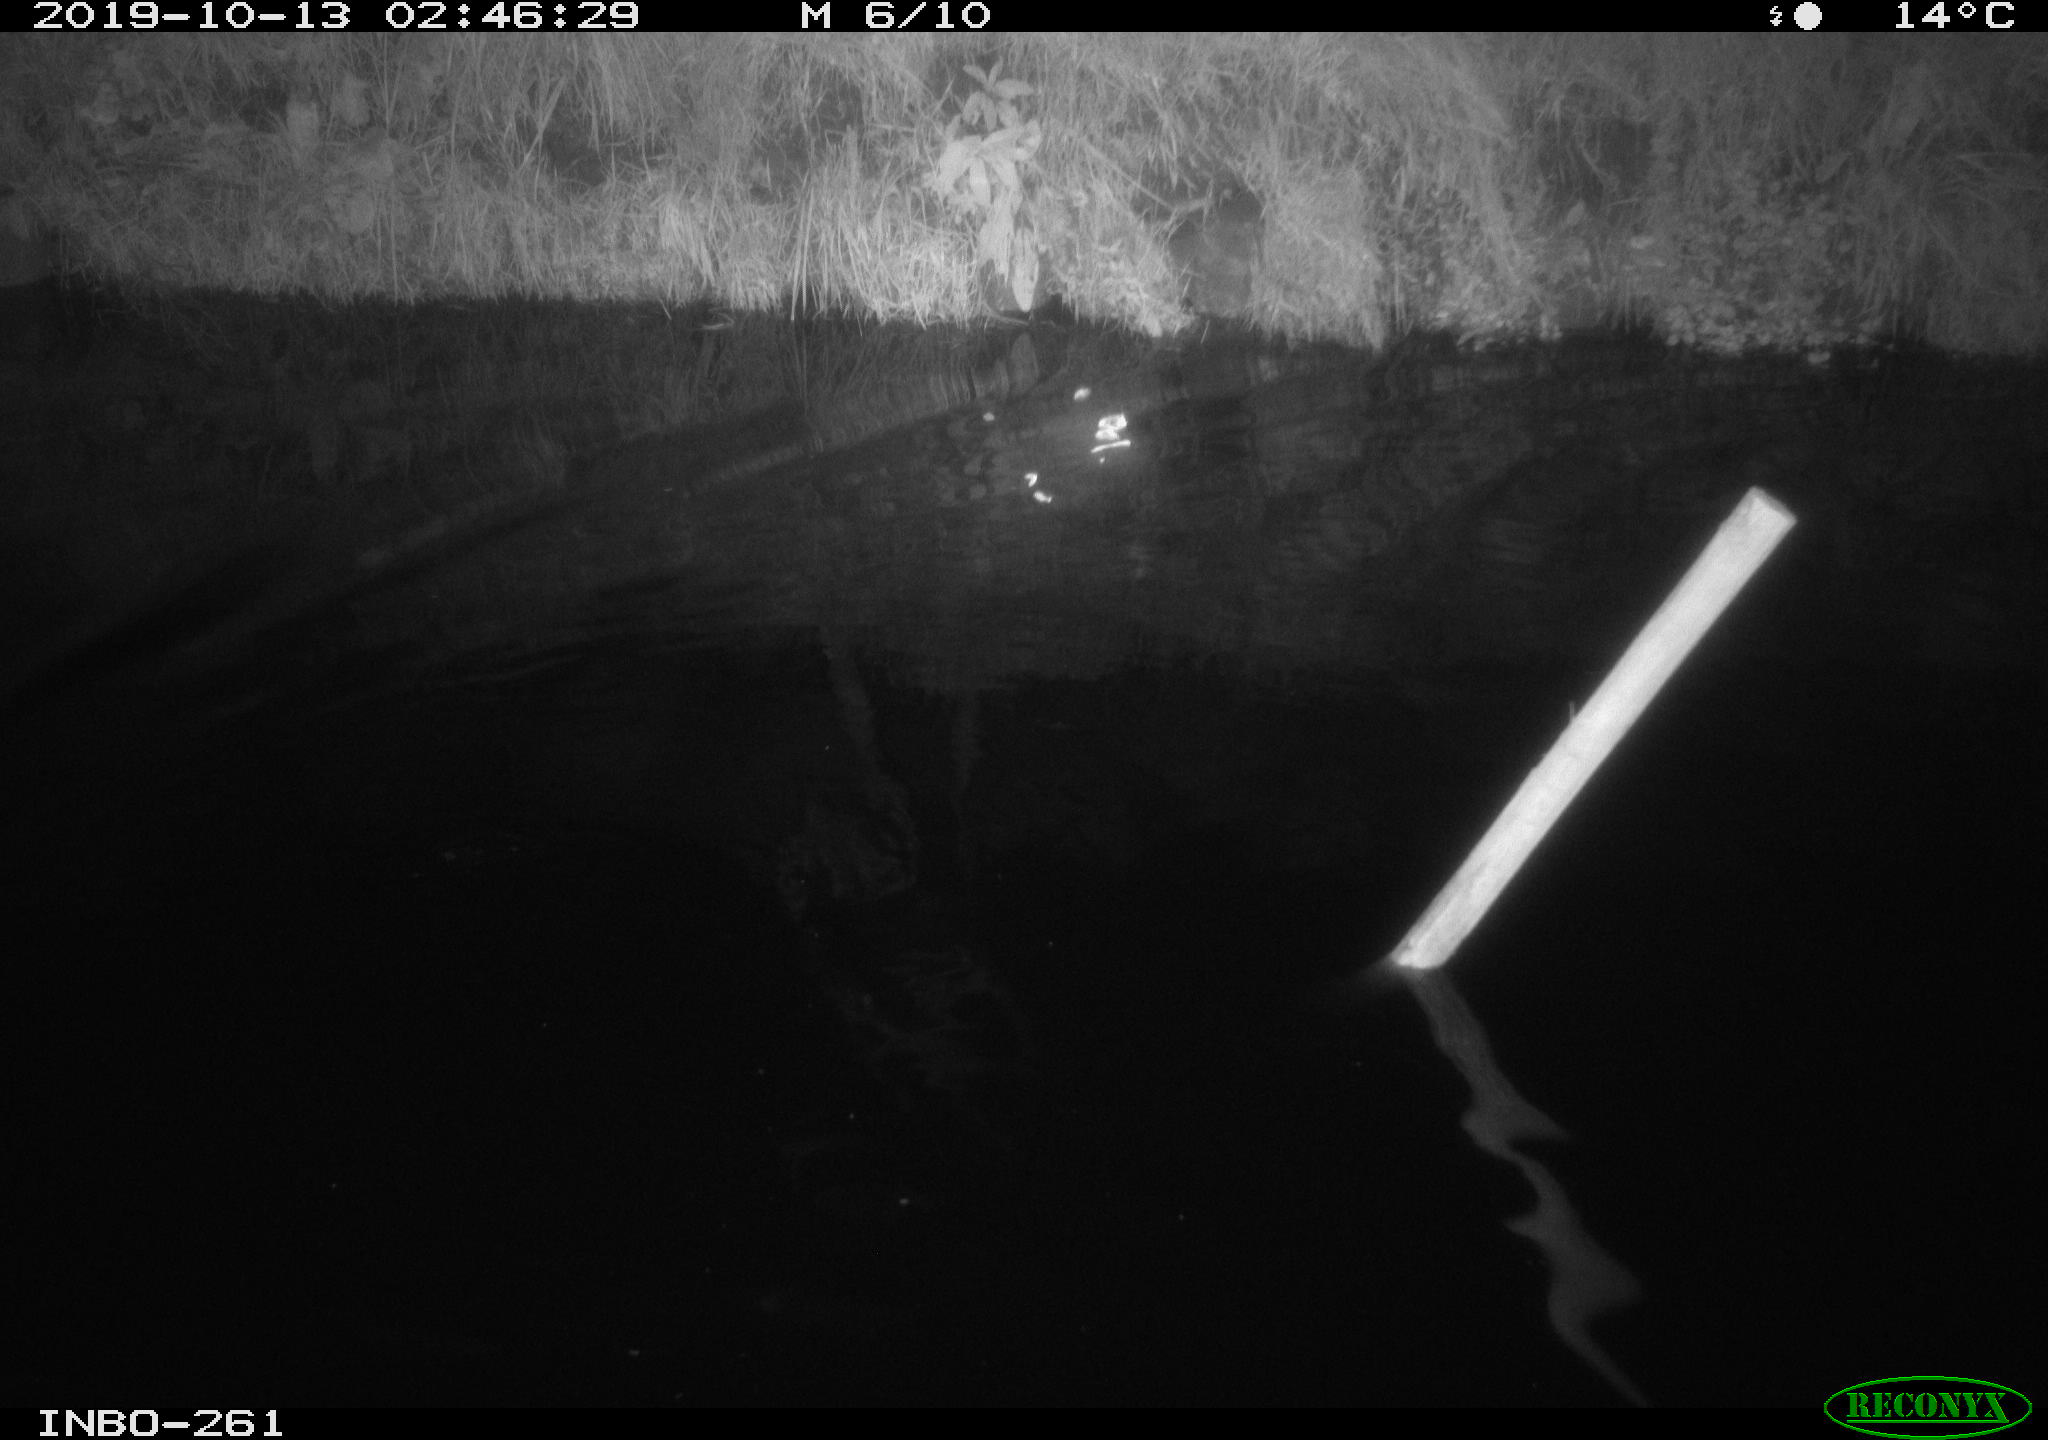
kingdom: Animalia
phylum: Chordata
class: Aves
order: Anseriformes
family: Anatidae
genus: Anas
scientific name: Anas platyrhynchos
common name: Mallard
